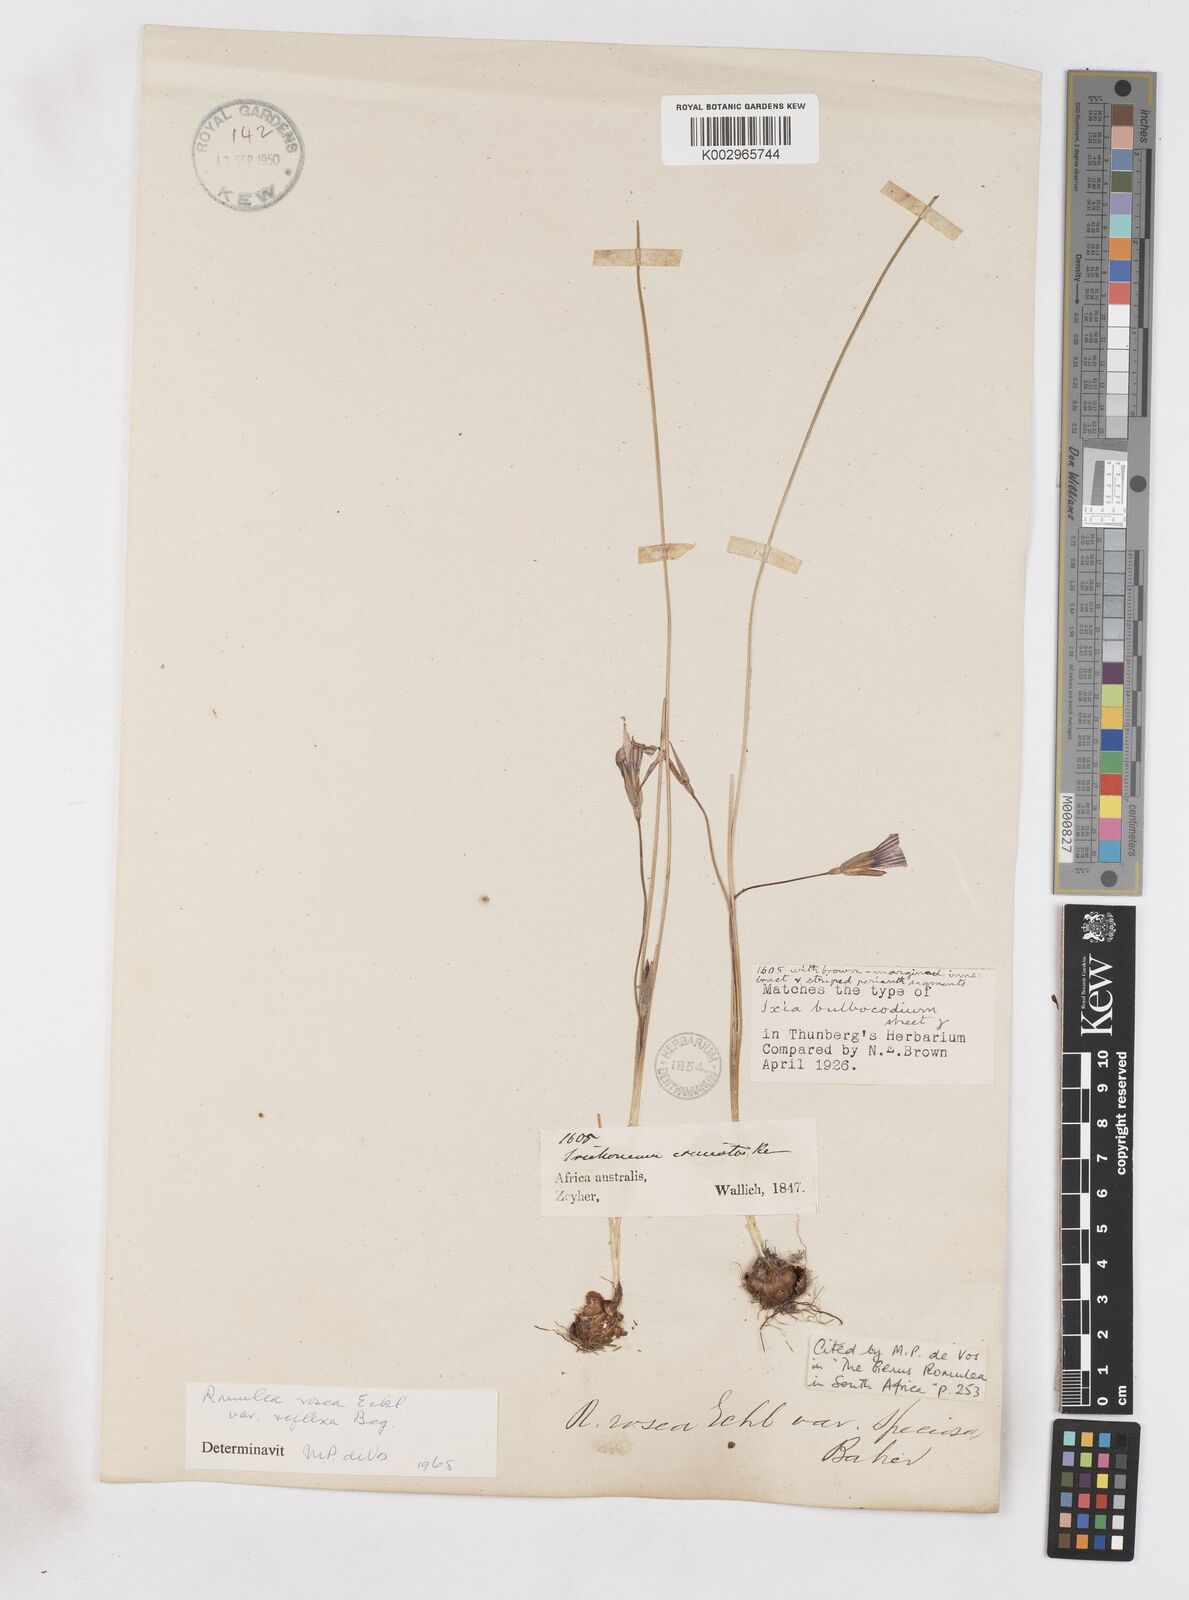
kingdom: Plantae
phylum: Tracheophyta
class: Liliopsida
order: Asparagales
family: Iridaceae
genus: Romulea
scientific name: Romulea rosea
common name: Oniongrass
